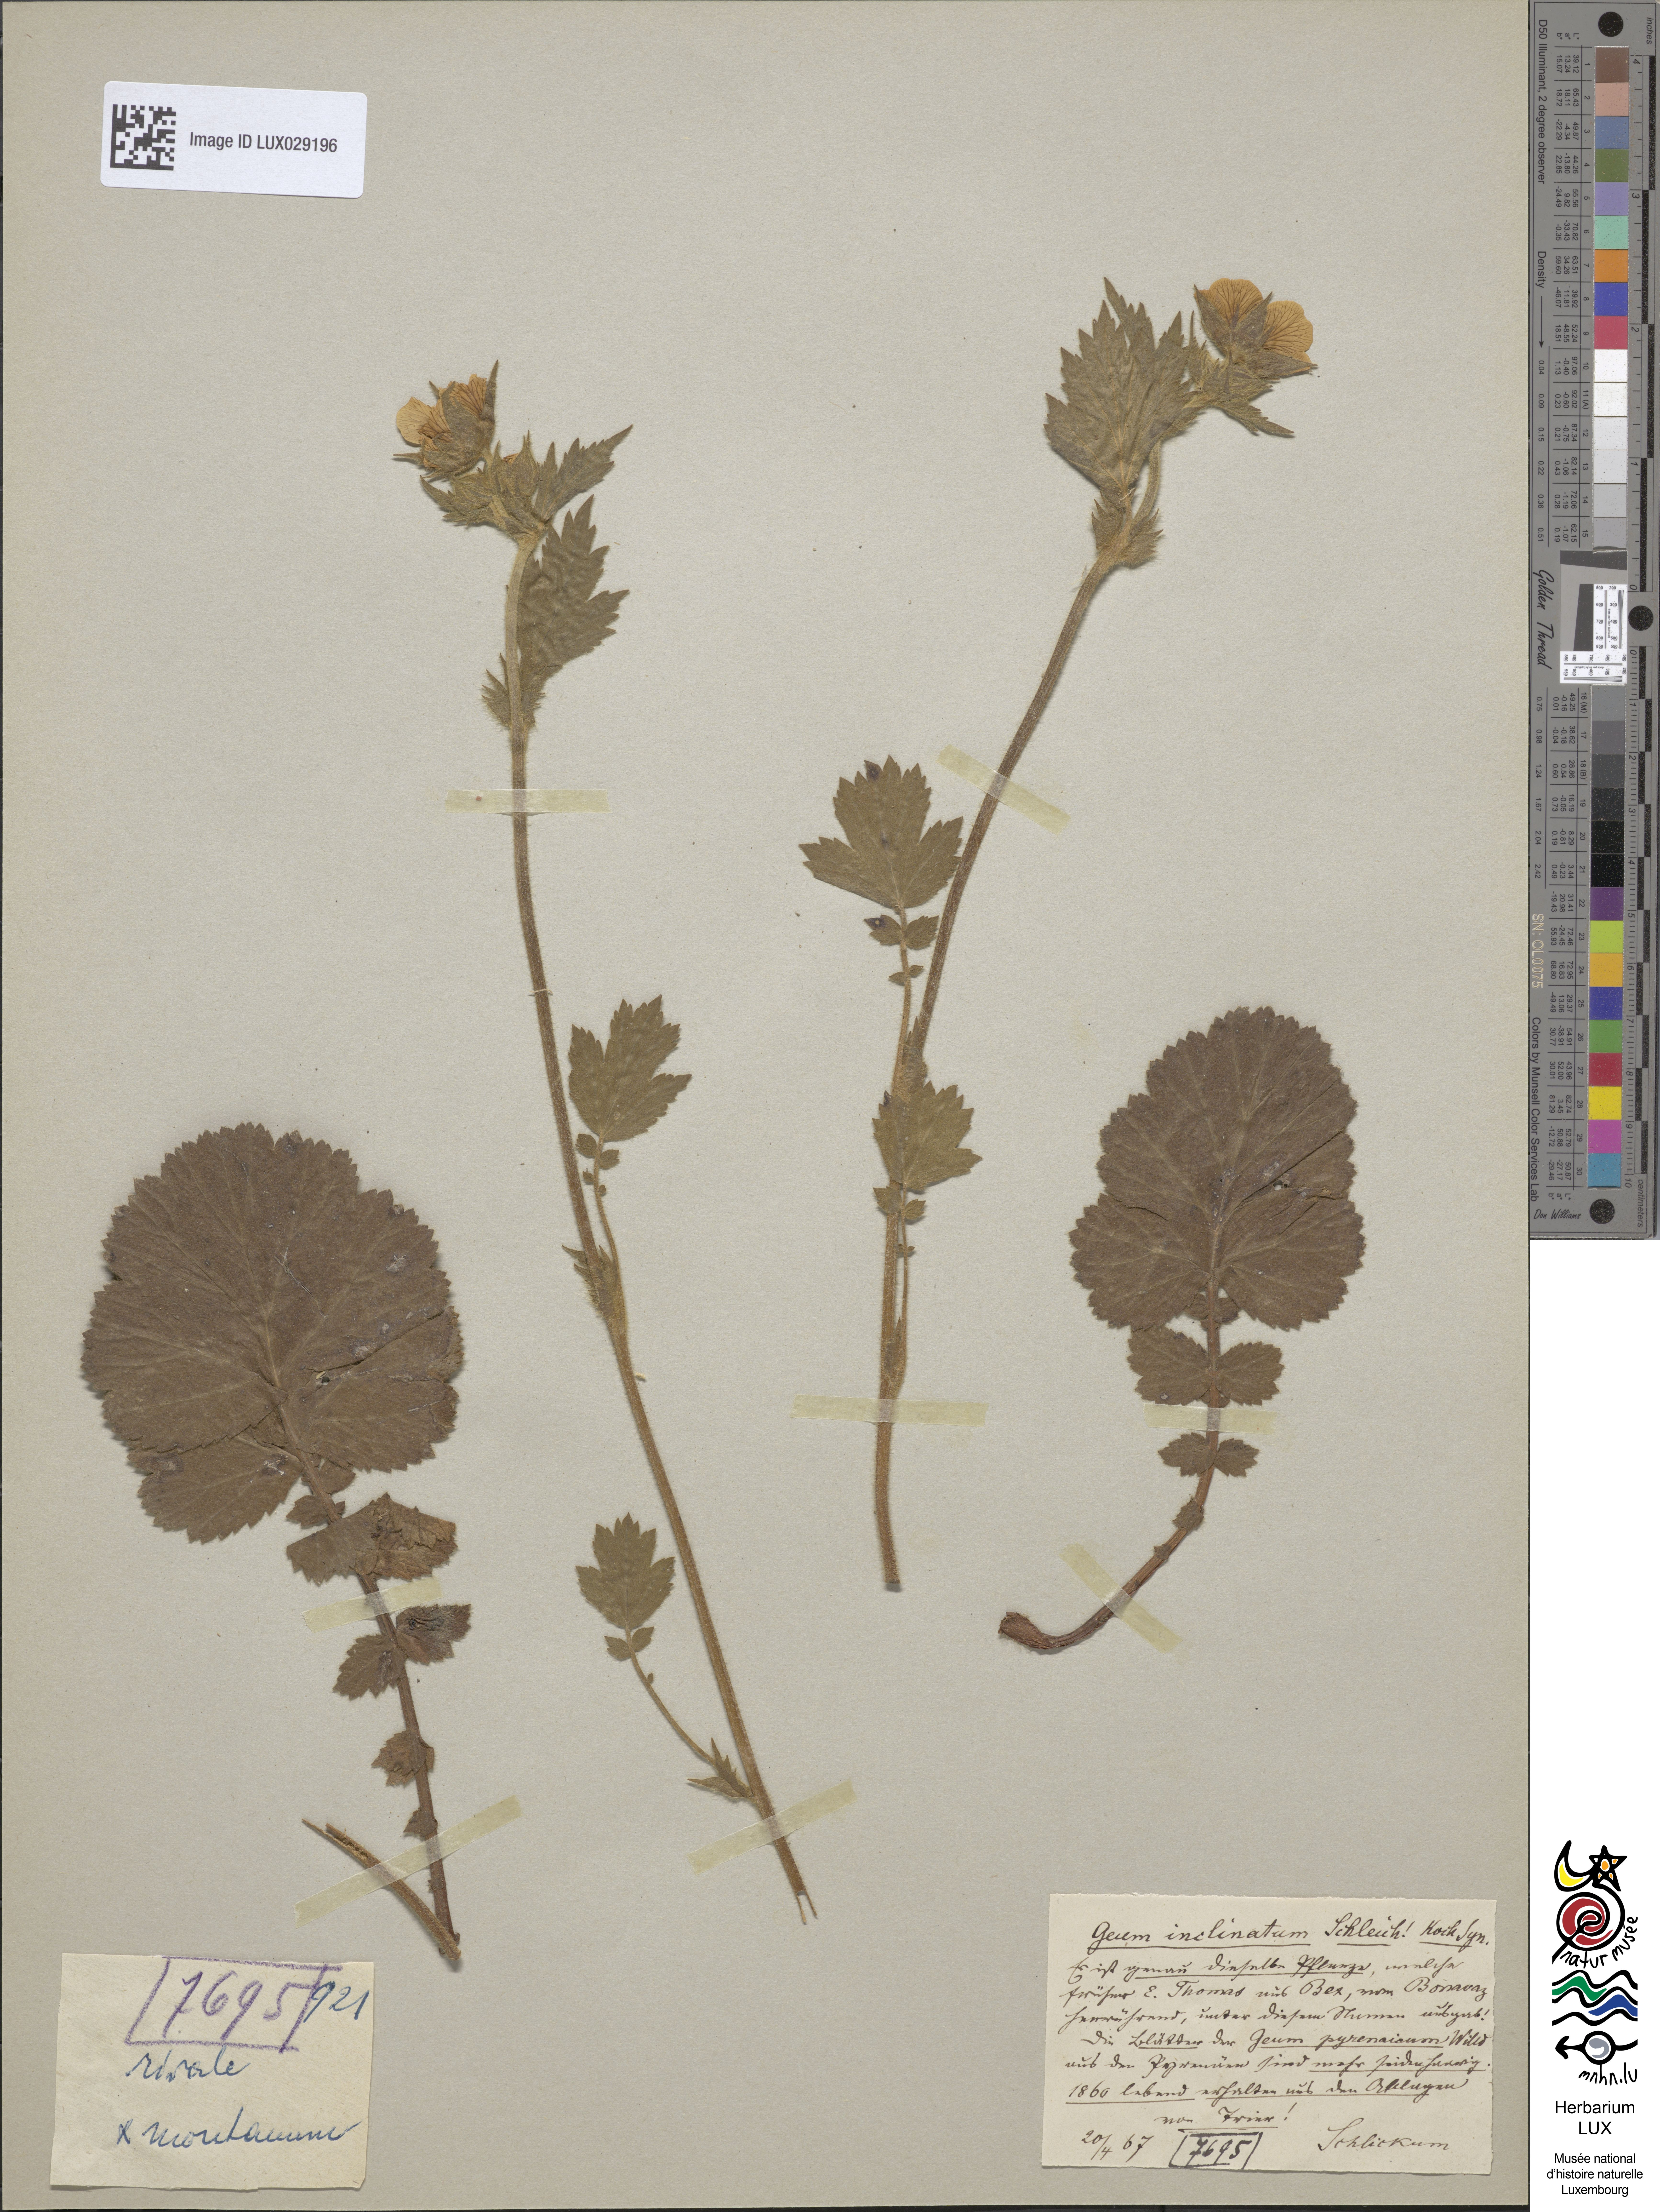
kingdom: Plantae
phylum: Tracheophyta
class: Magnoliopsida
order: Rosales
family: Rosaceae
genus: Geum
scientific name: Geum sudeticum
